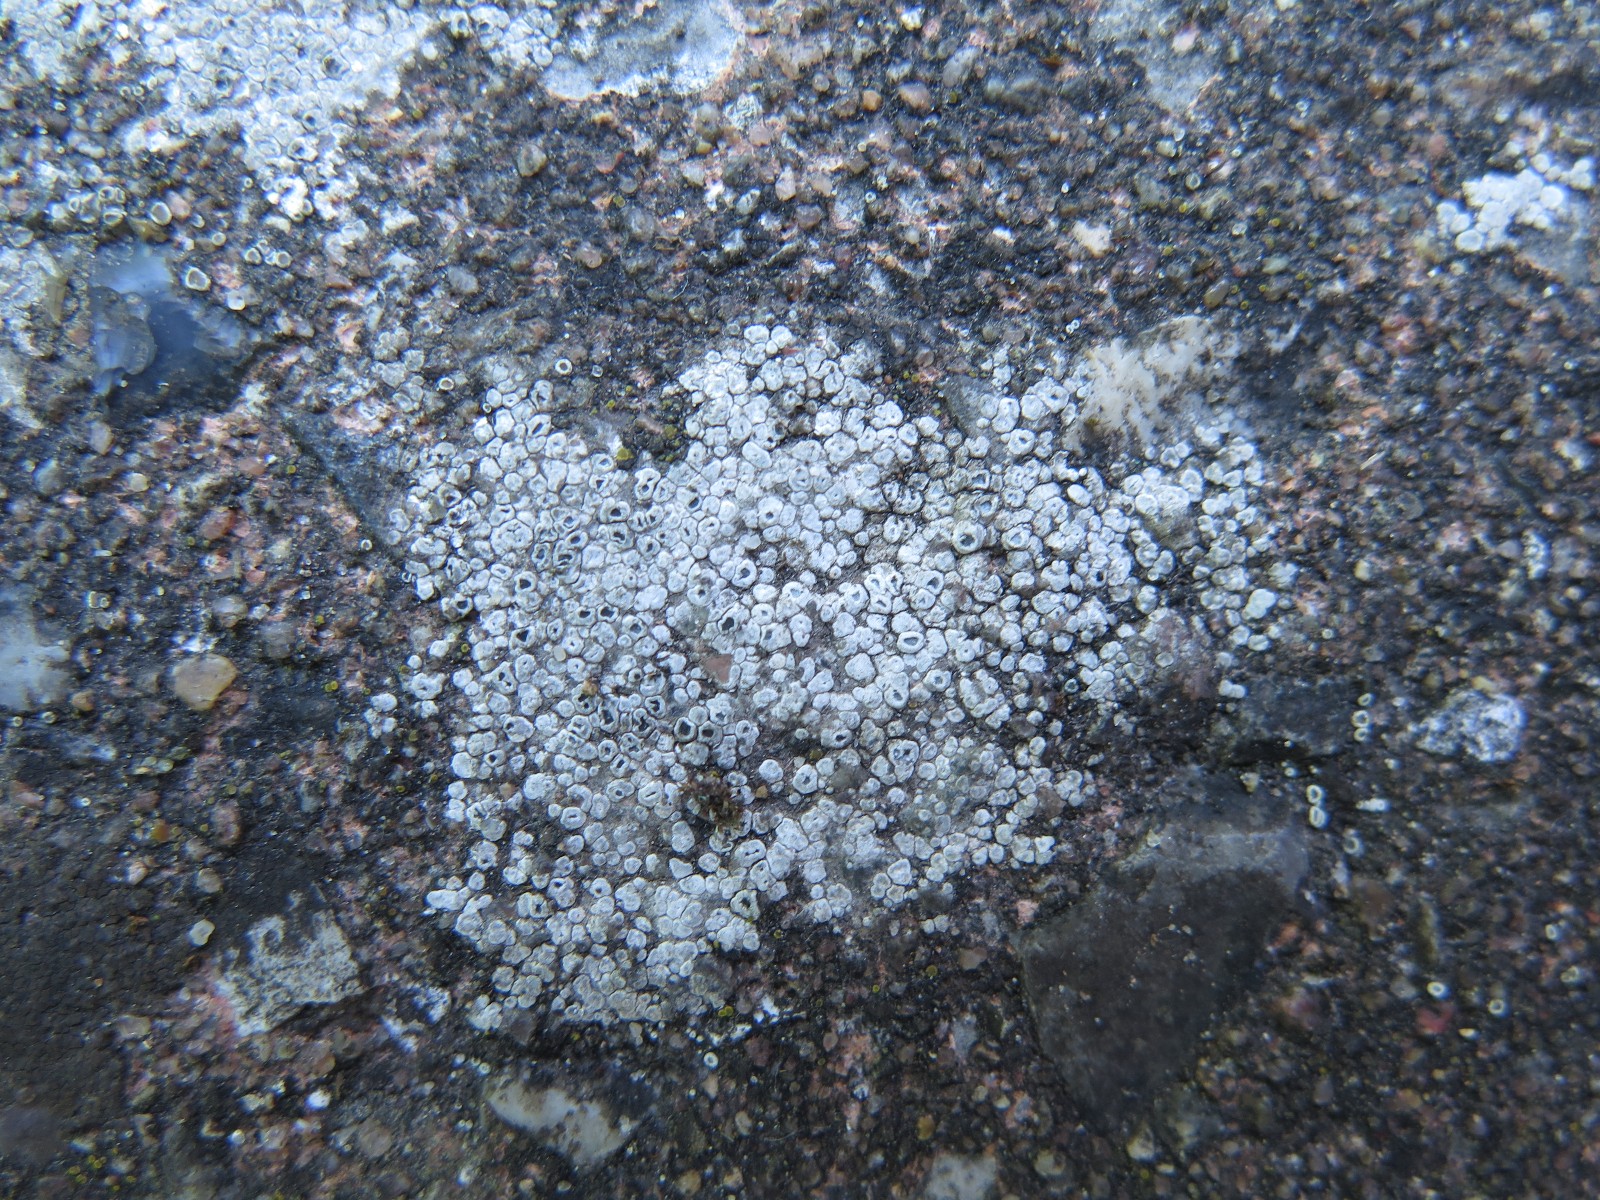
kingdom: Fungi
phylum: Ascomycota
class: Lecanoromycetes
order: Pertusariales
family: Megasporaceae
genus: Circinaria
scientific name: Circinaria contorta
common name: indviklet hulskivelav
